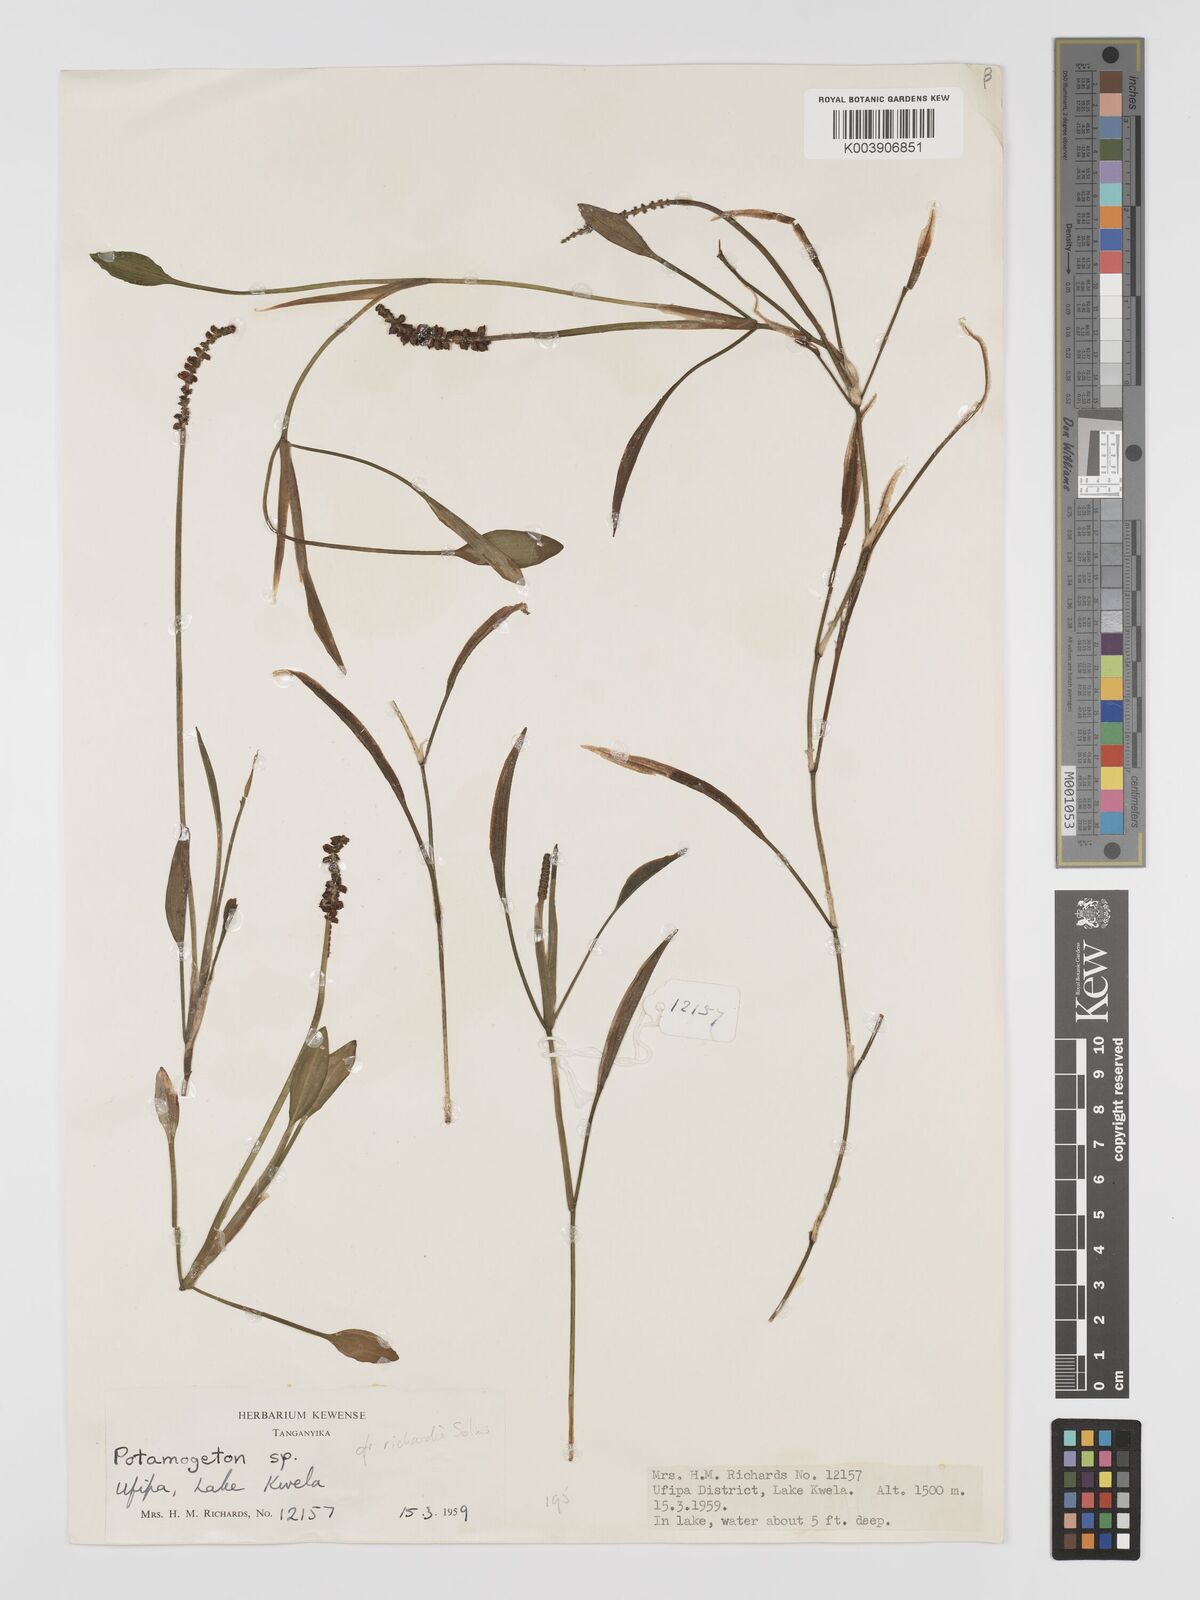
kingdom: Plantae
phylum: Tracheophyta
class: Liliopsida
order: Alismatales
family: Potamogetonaceae
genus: Potamogeton
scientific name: Potamogeton schweinfurthii
